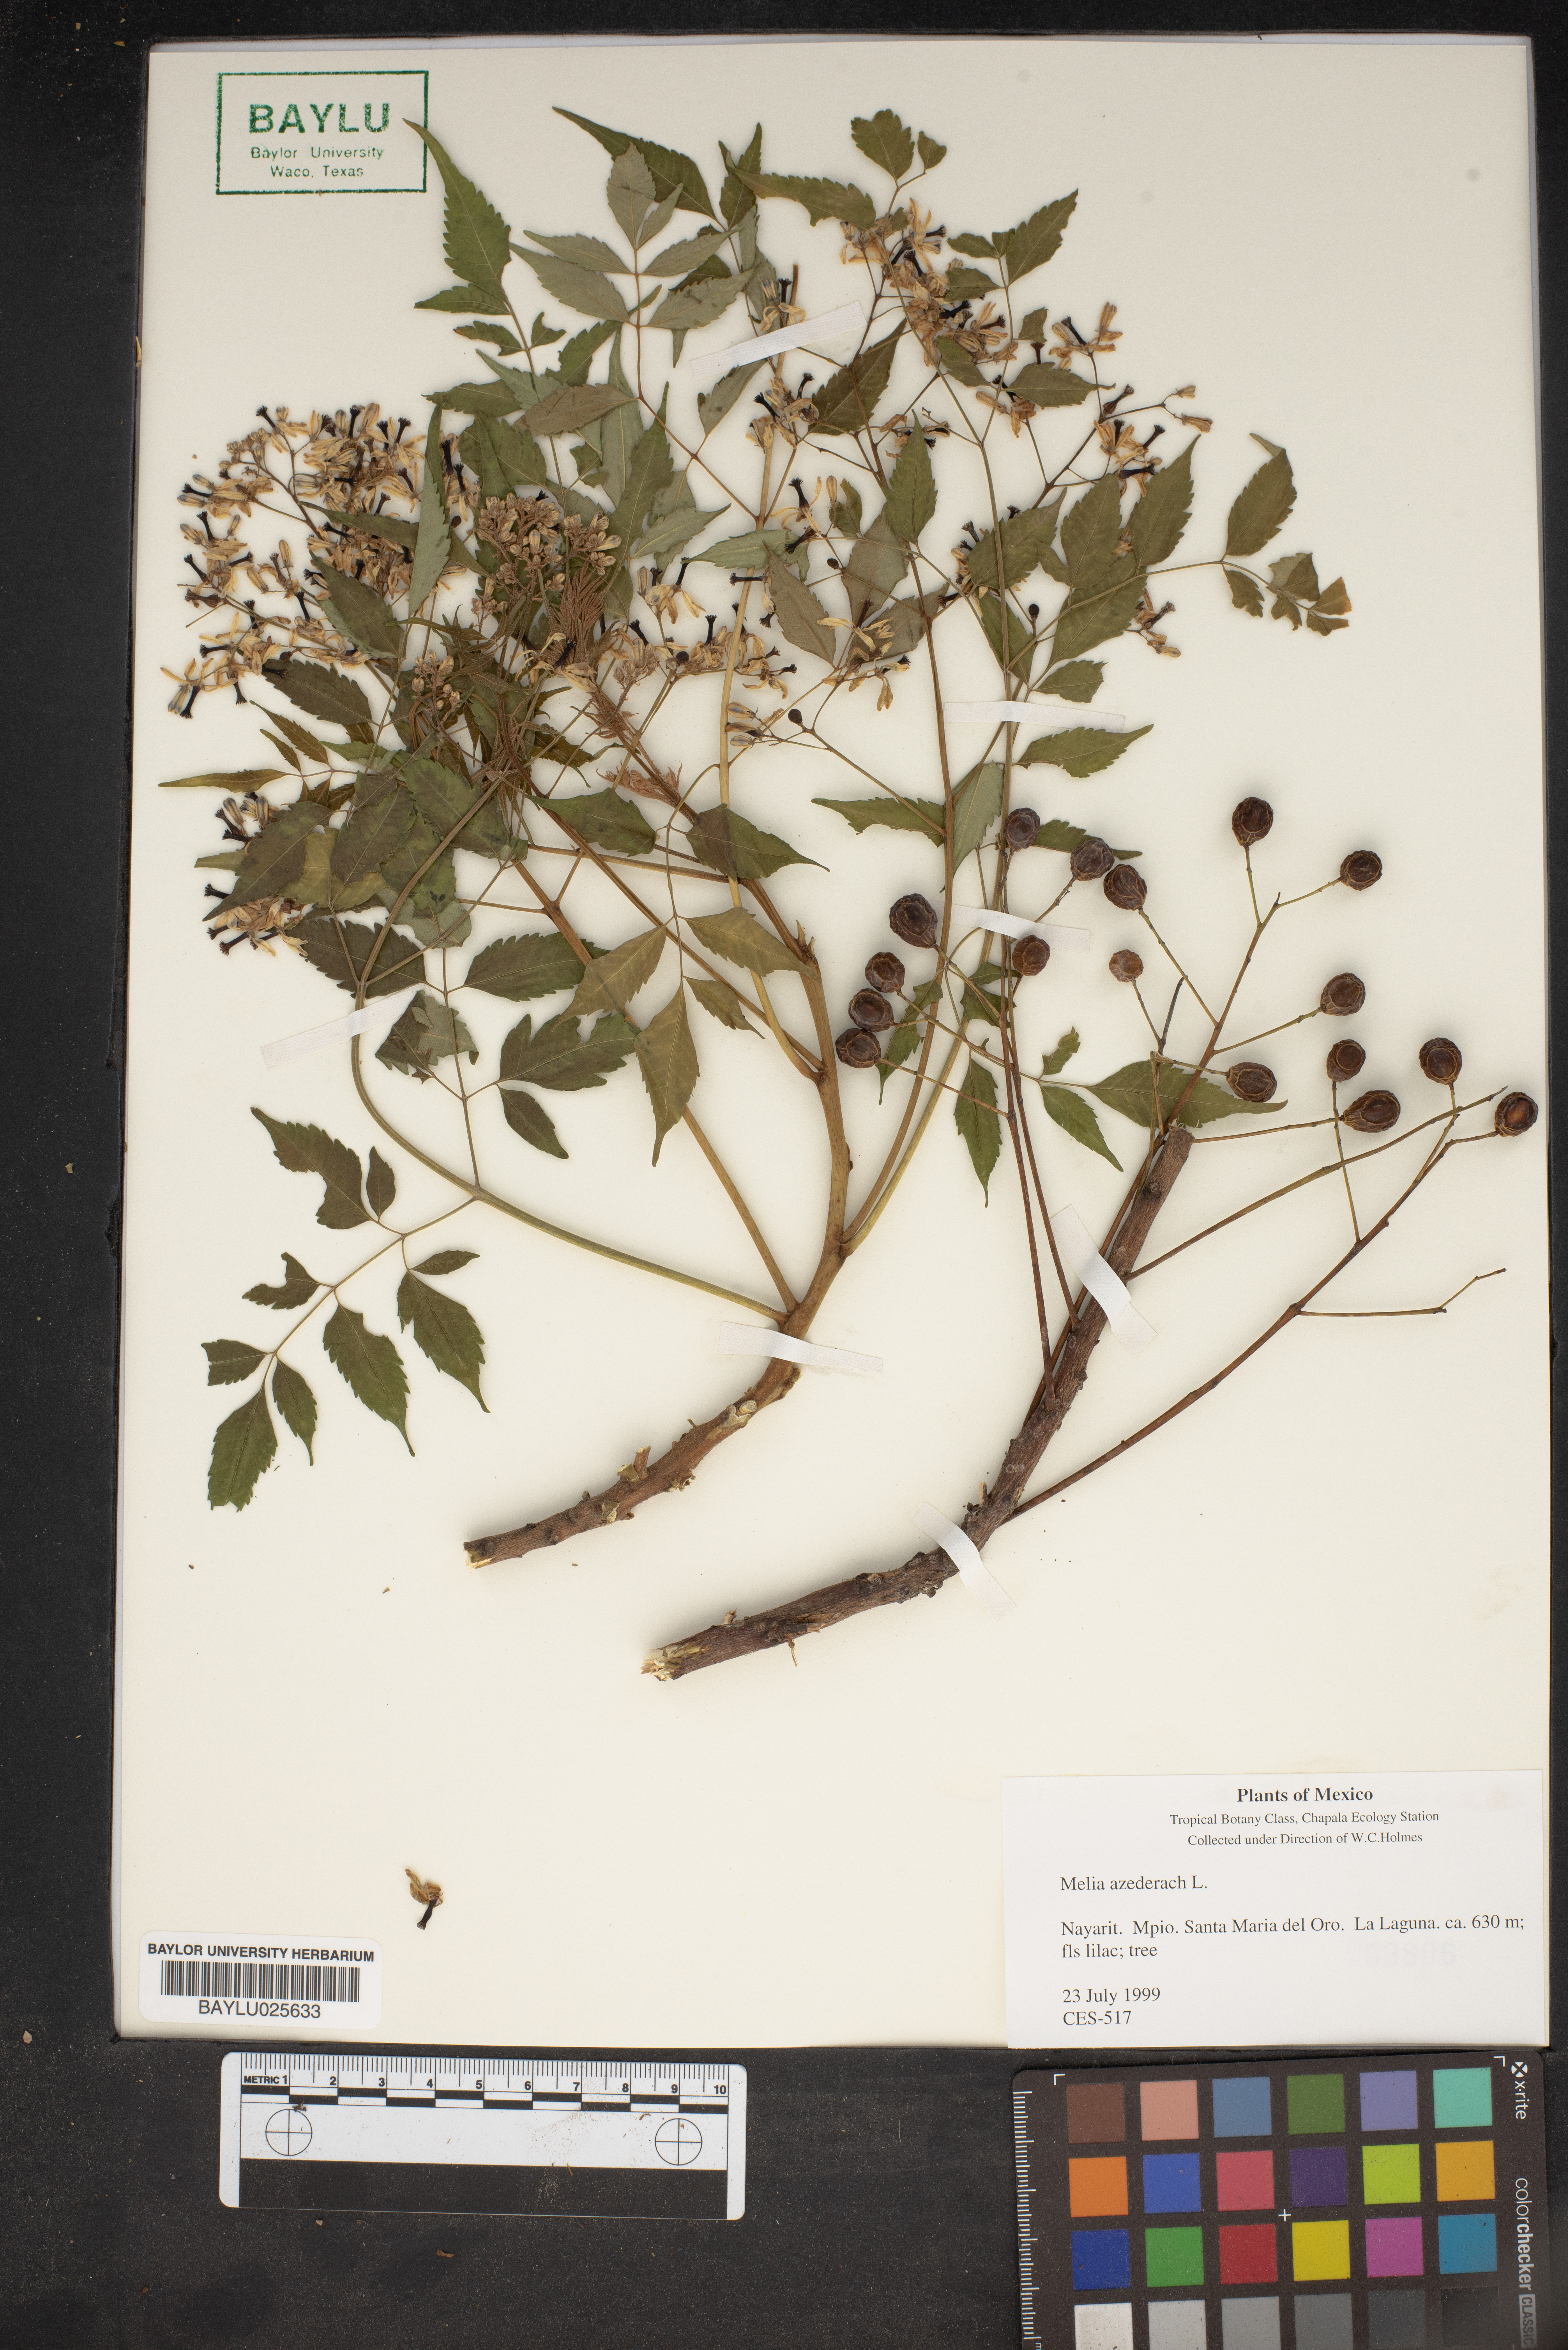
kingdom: Plantae
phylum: Tracheophyta
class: Magnoliopsida
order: Sapindales
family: Meliaceae
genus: Melia
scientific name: Melia azedarach
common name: Chinaberrytree
